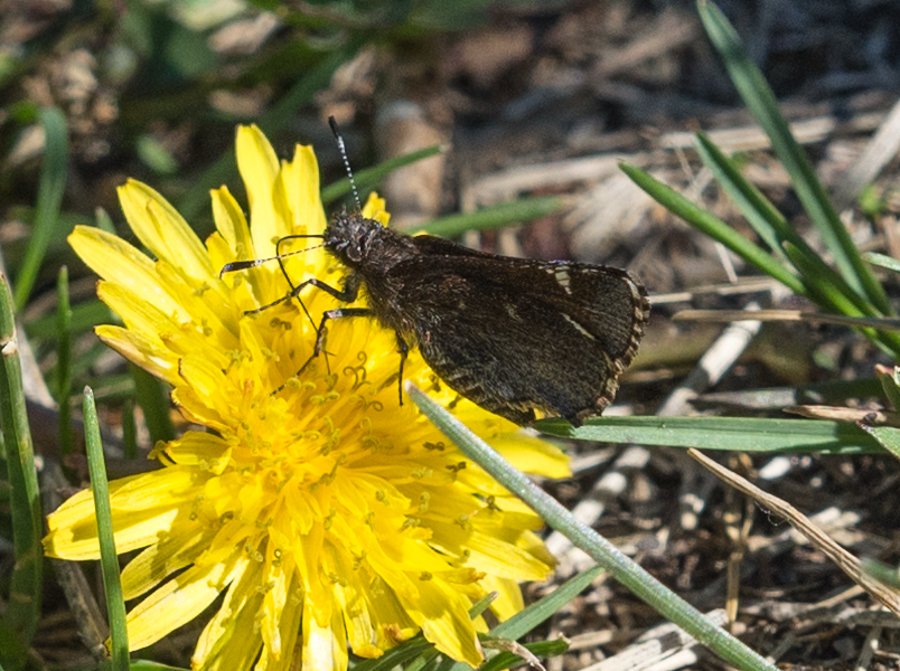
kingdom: Animalia
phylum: Arthropoda
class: Insecta
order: Lepidoptera
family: Hesperiidae
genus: Mastor
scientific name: Mastor vialis
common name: Common Roadside-Skipper
